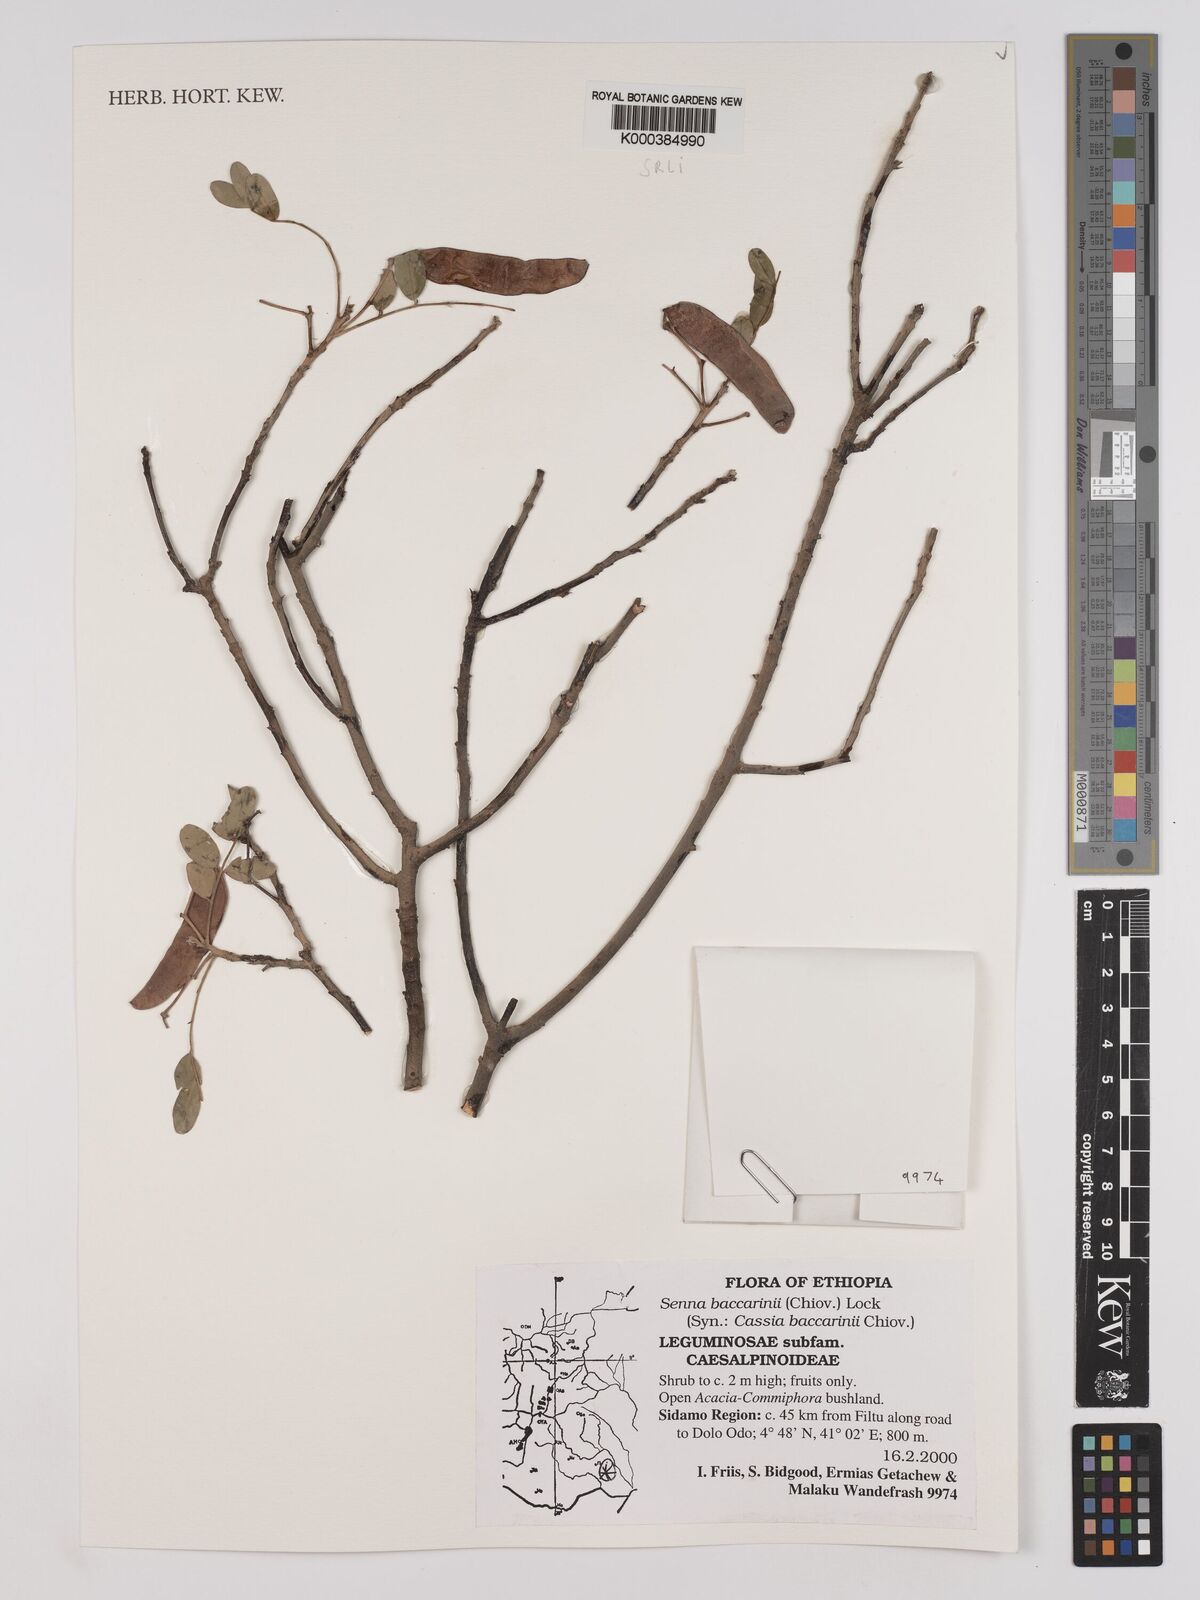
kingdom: Plantae
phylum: Tracheophyta
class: Magnoliopsida
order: Fabales
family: Fabaceae
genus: Senna
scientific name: Senna baccarinii
